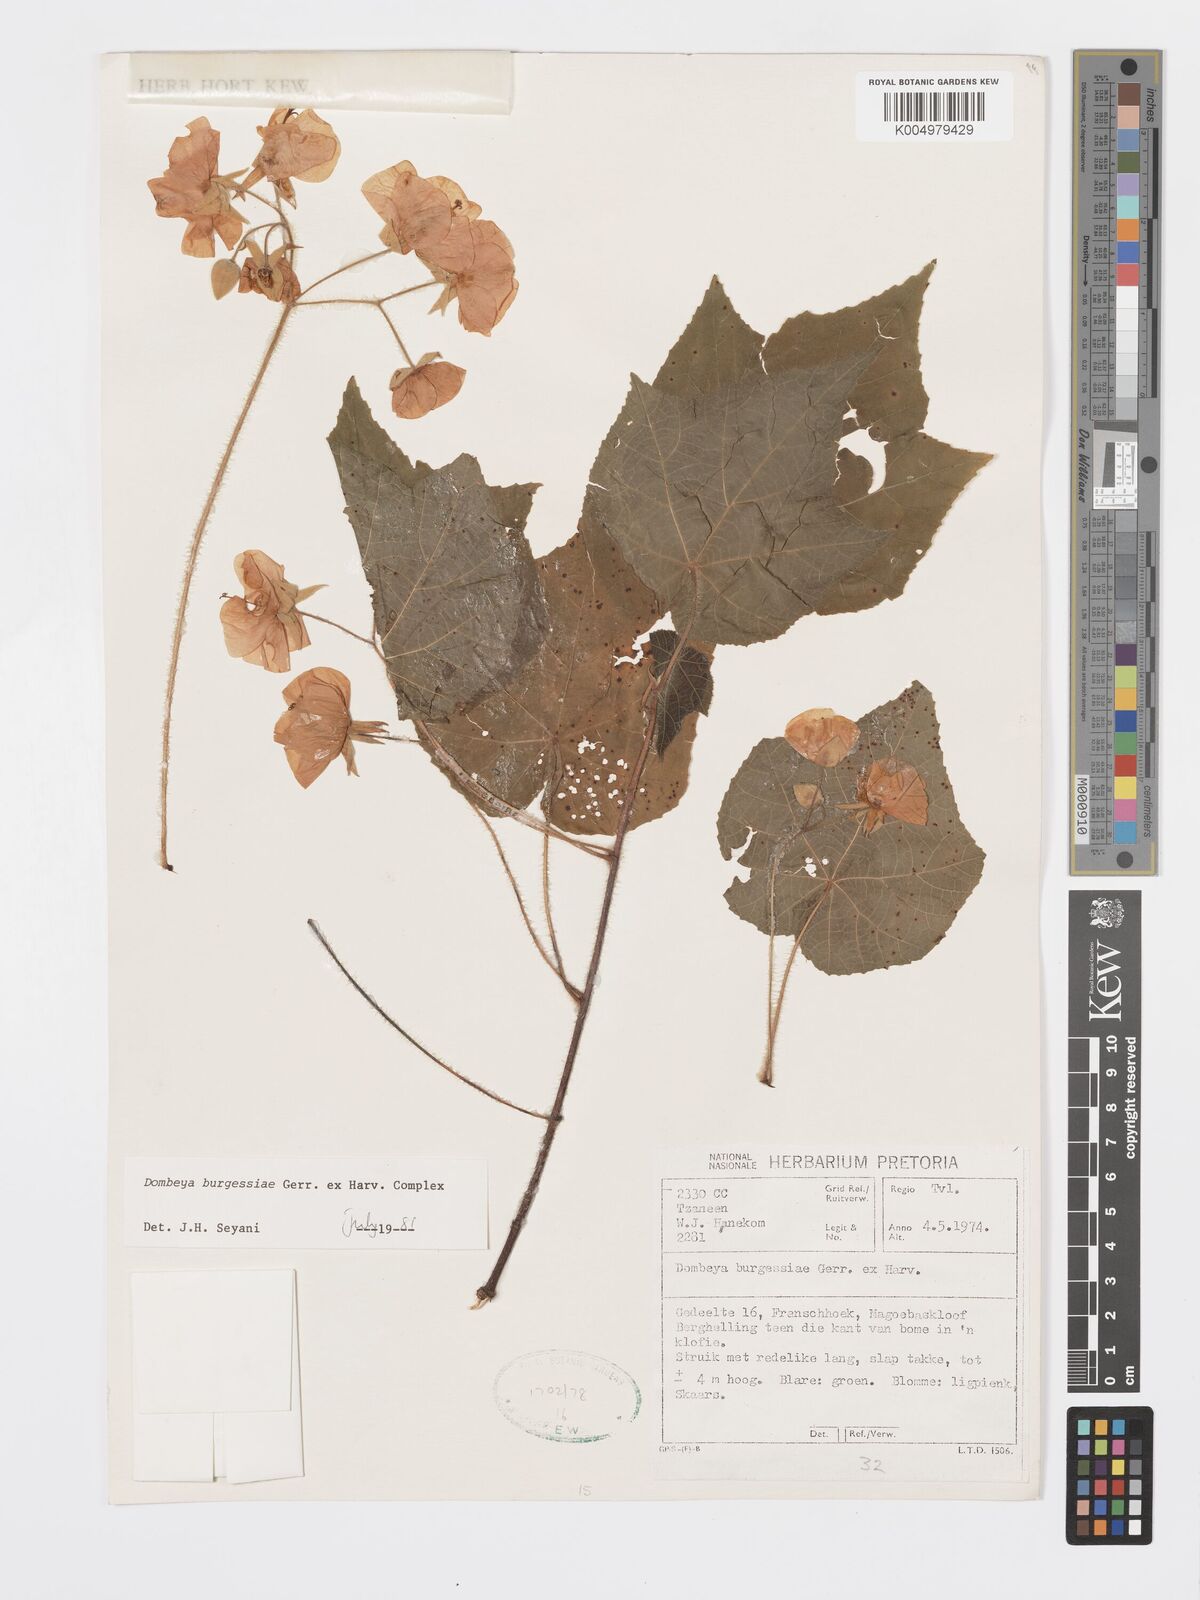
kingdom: Plantae
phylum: Tracheophyta
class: Magnoliopsida
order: Malvales
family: Malvaceae
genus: Dombeya
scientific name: Dombeya burgessiae
